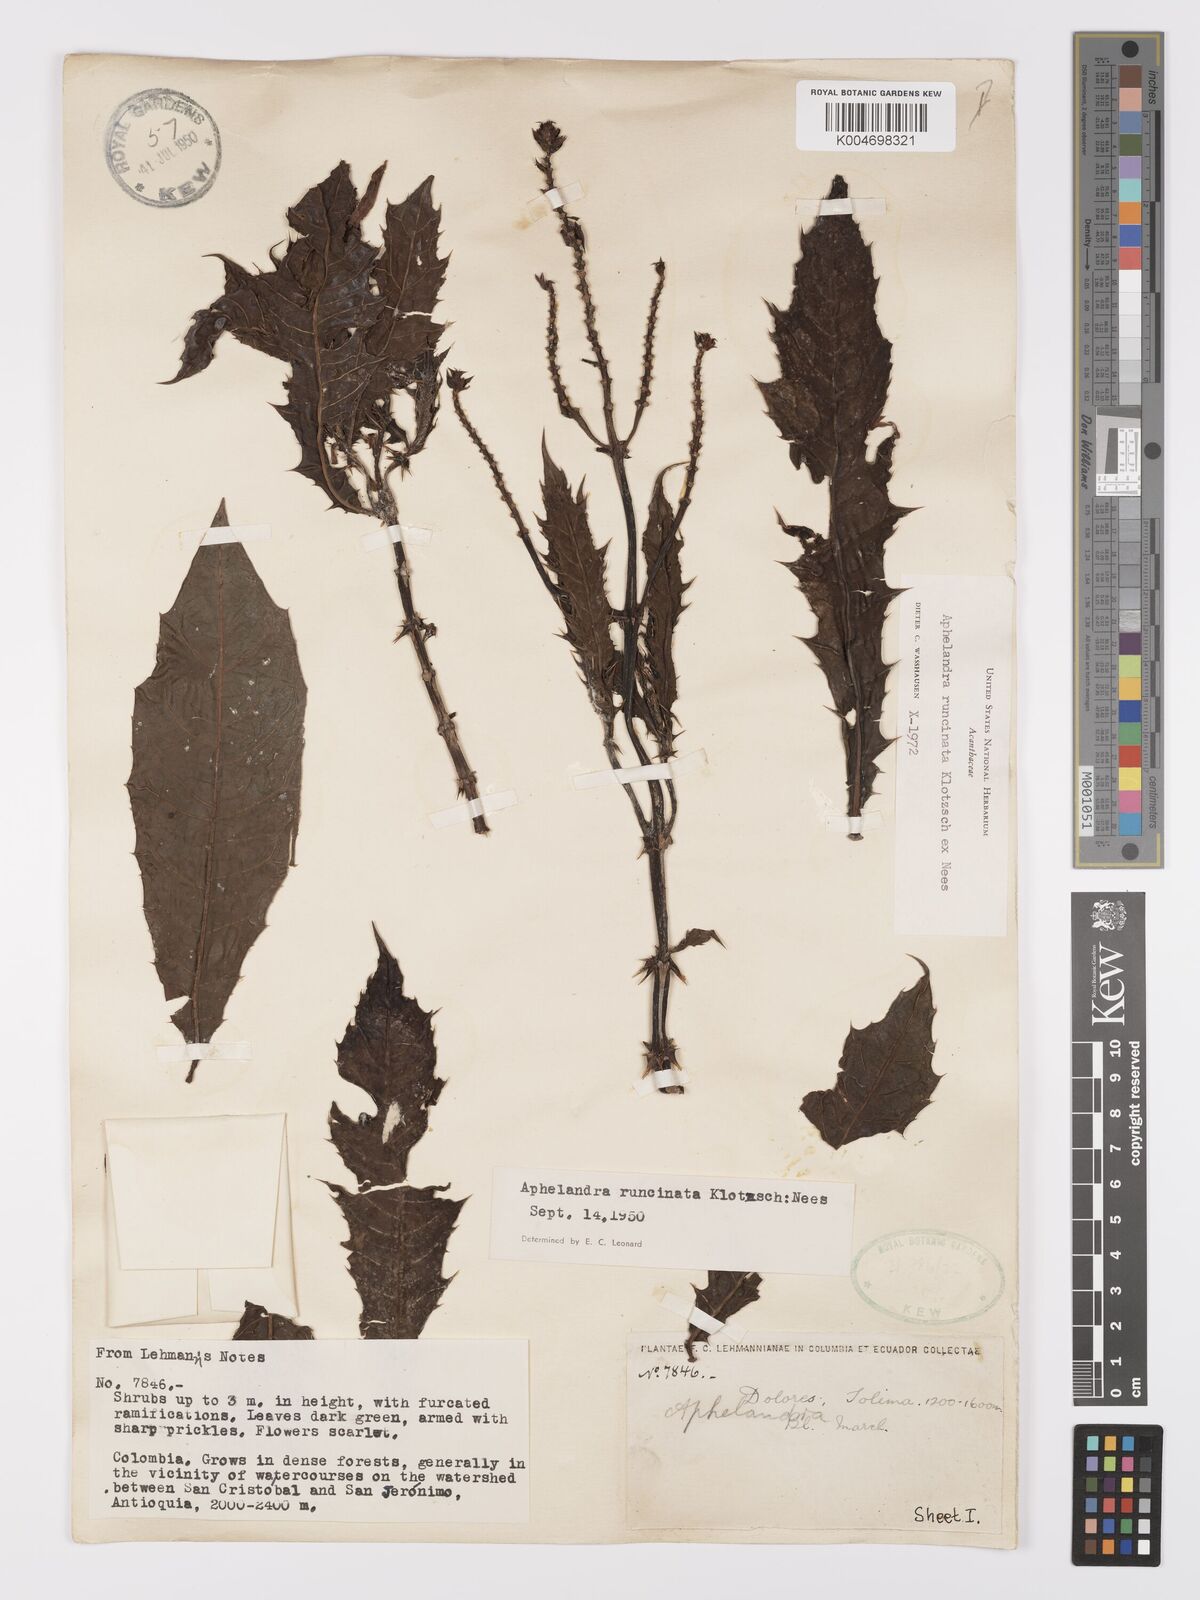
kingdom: Plantae
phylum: Tracheophyta
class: Magnoliopsida
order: Lamiales
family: Acanthaceae
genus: Aphelandra
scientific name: Aphelandra runcinata
